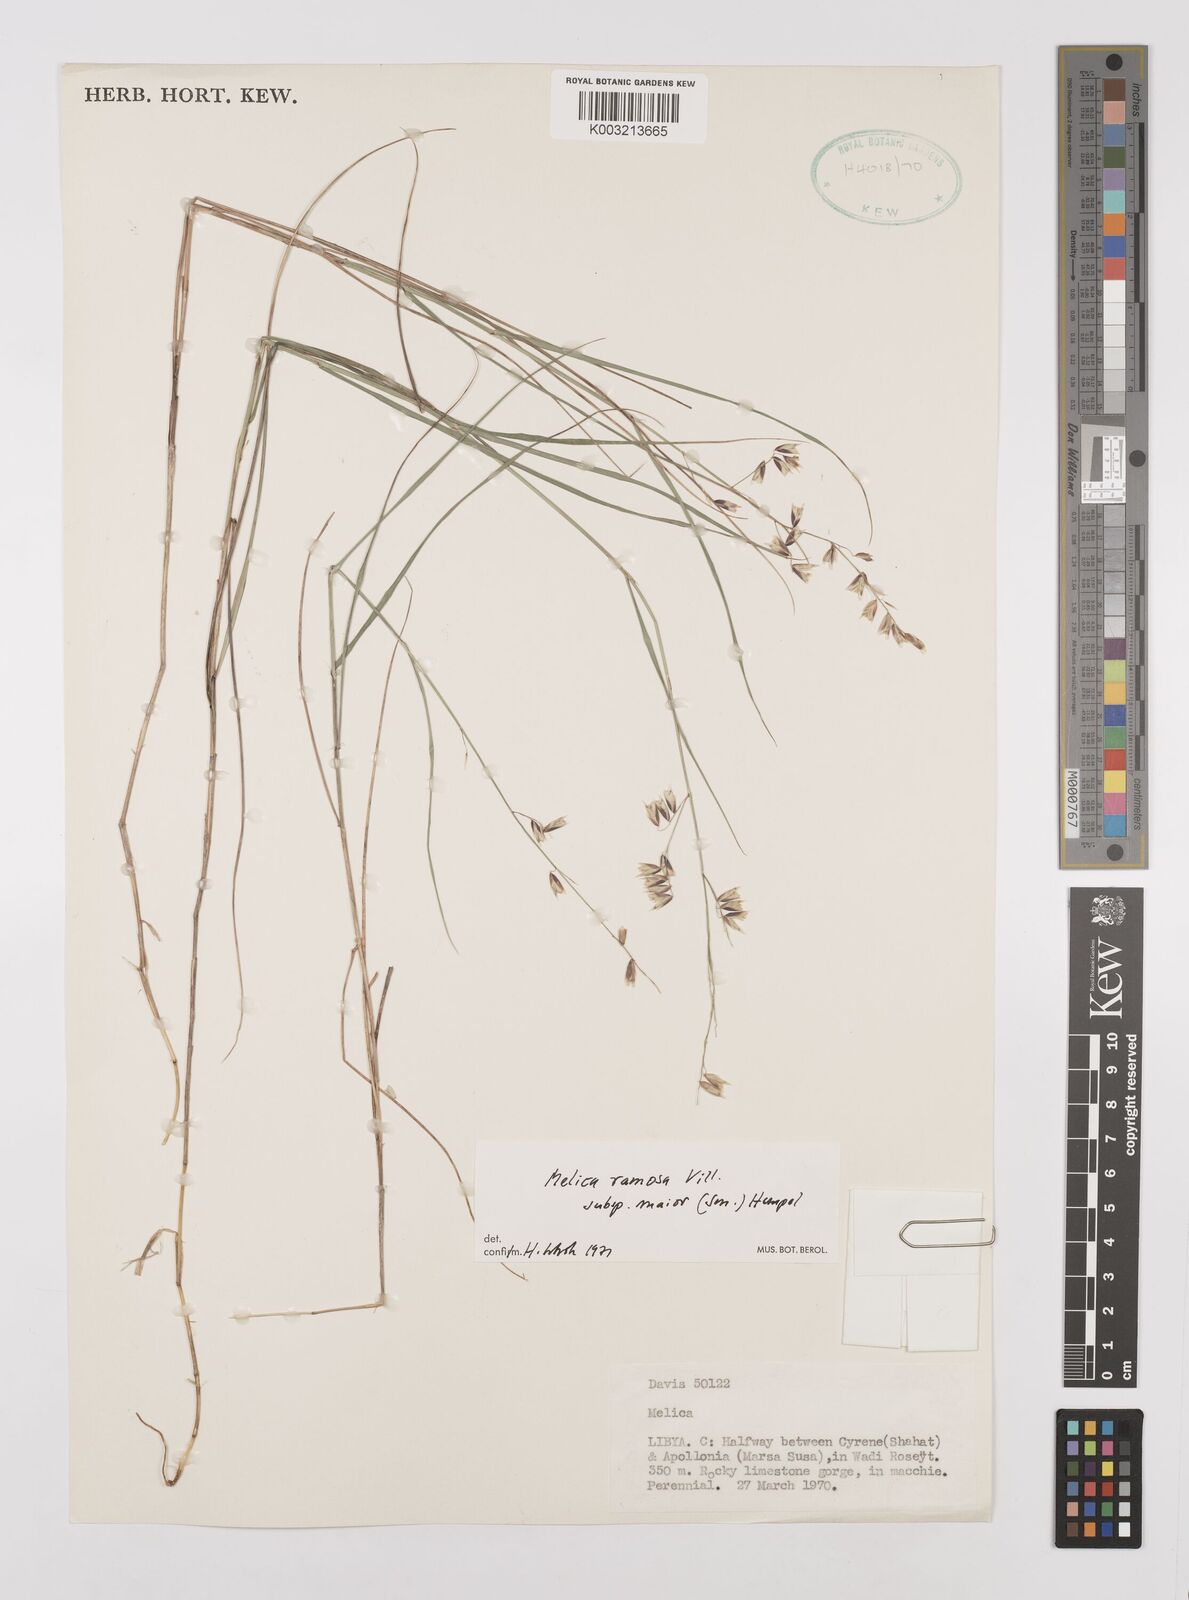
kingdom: Plantae
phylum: Tracheophyta
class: Liliopsida
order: Poales
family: Poaceae
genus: Melica
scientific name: Melica minuta
